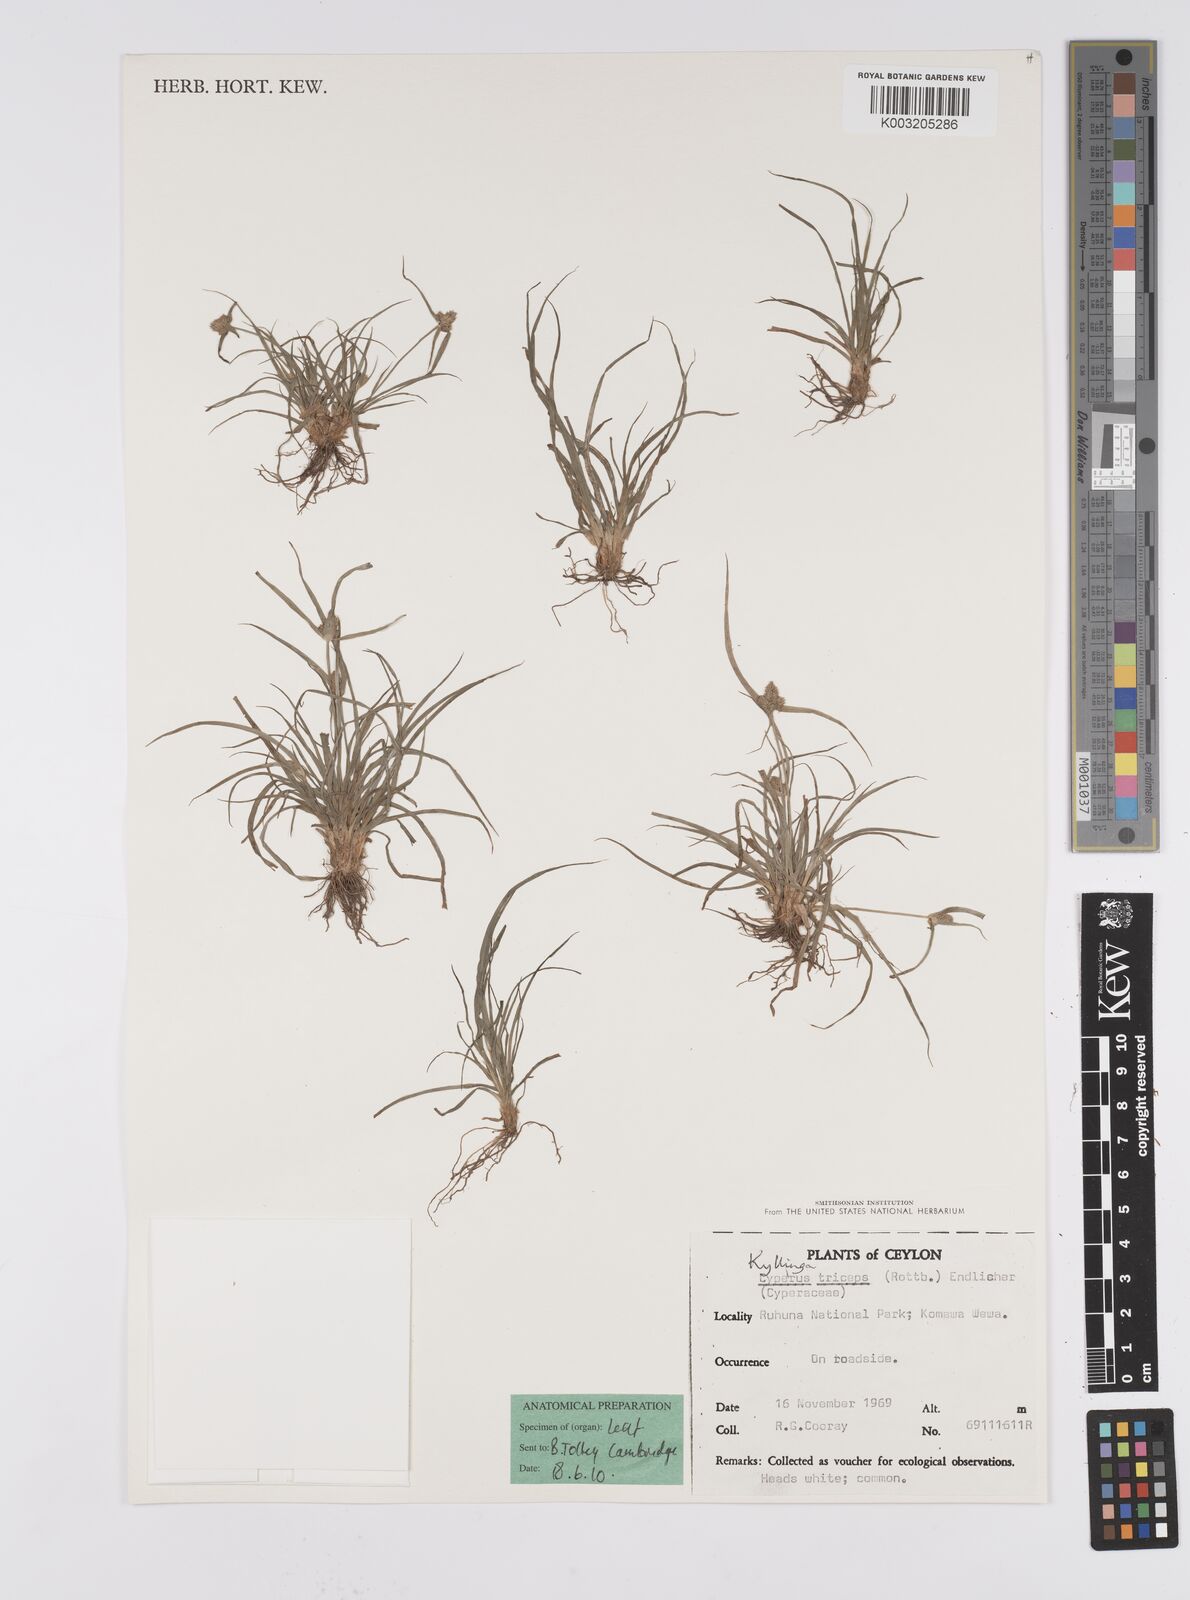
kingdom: Plantae
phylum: Tracheophyta
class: Liliopsida
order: Poales
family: Cyperaceae
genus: Cyperus
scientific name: Cyperus
